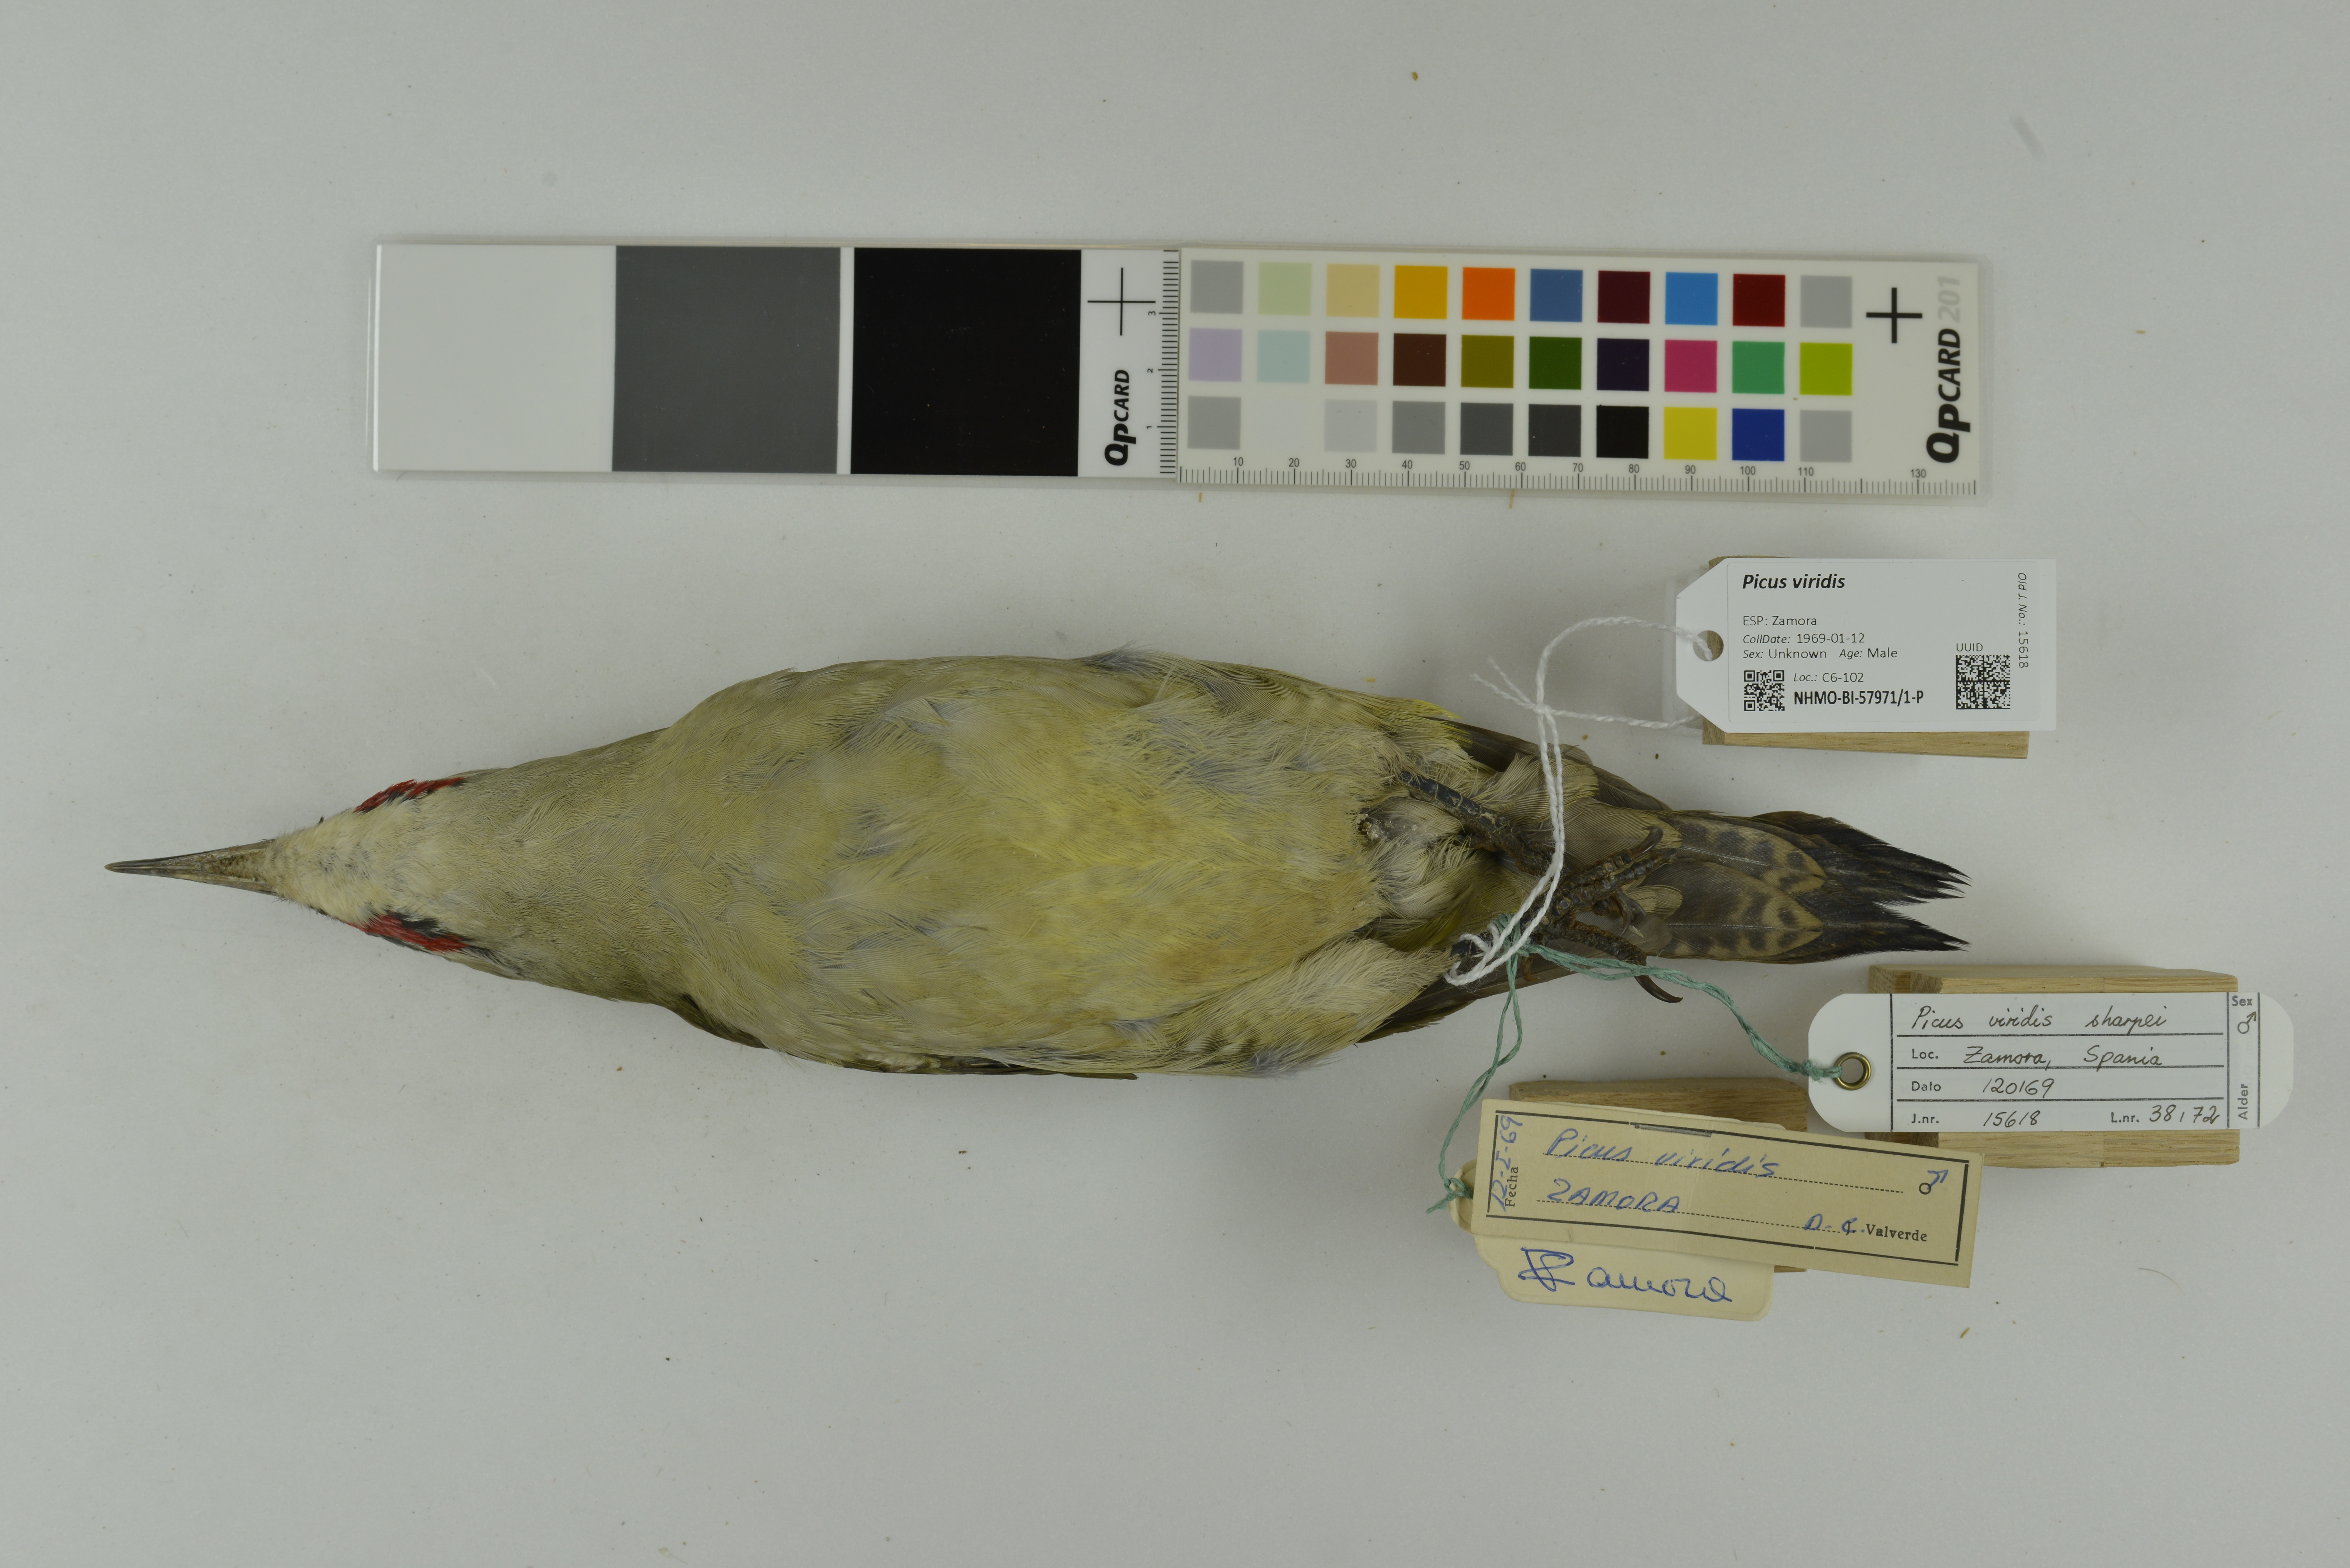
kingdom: Animalia
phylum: Chordata
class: Aves
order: Piciformes
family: Picidae
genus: Picus
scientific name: Picus viridis
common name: European green woodpecker
